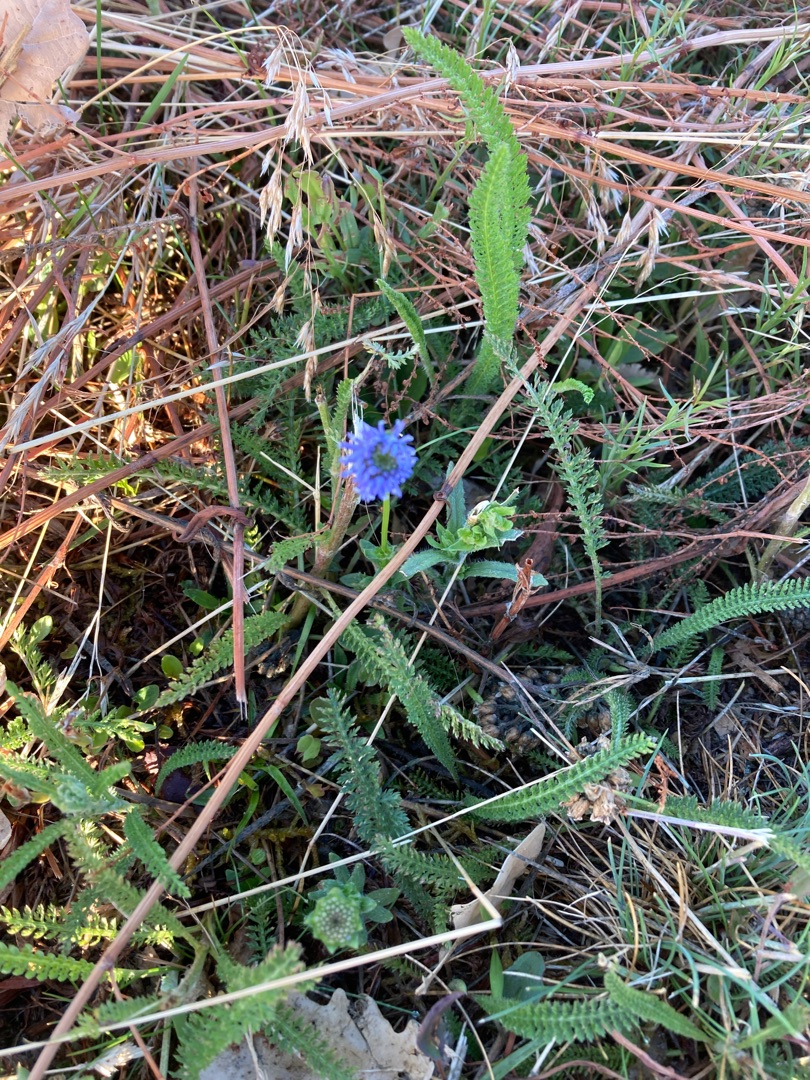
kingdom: Plantae
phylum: Tracheophyta
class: Magnoliopsida
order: Asterales
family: Campanulaceae
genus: Jasione
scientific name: Jasione montana
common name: Blåmunke
